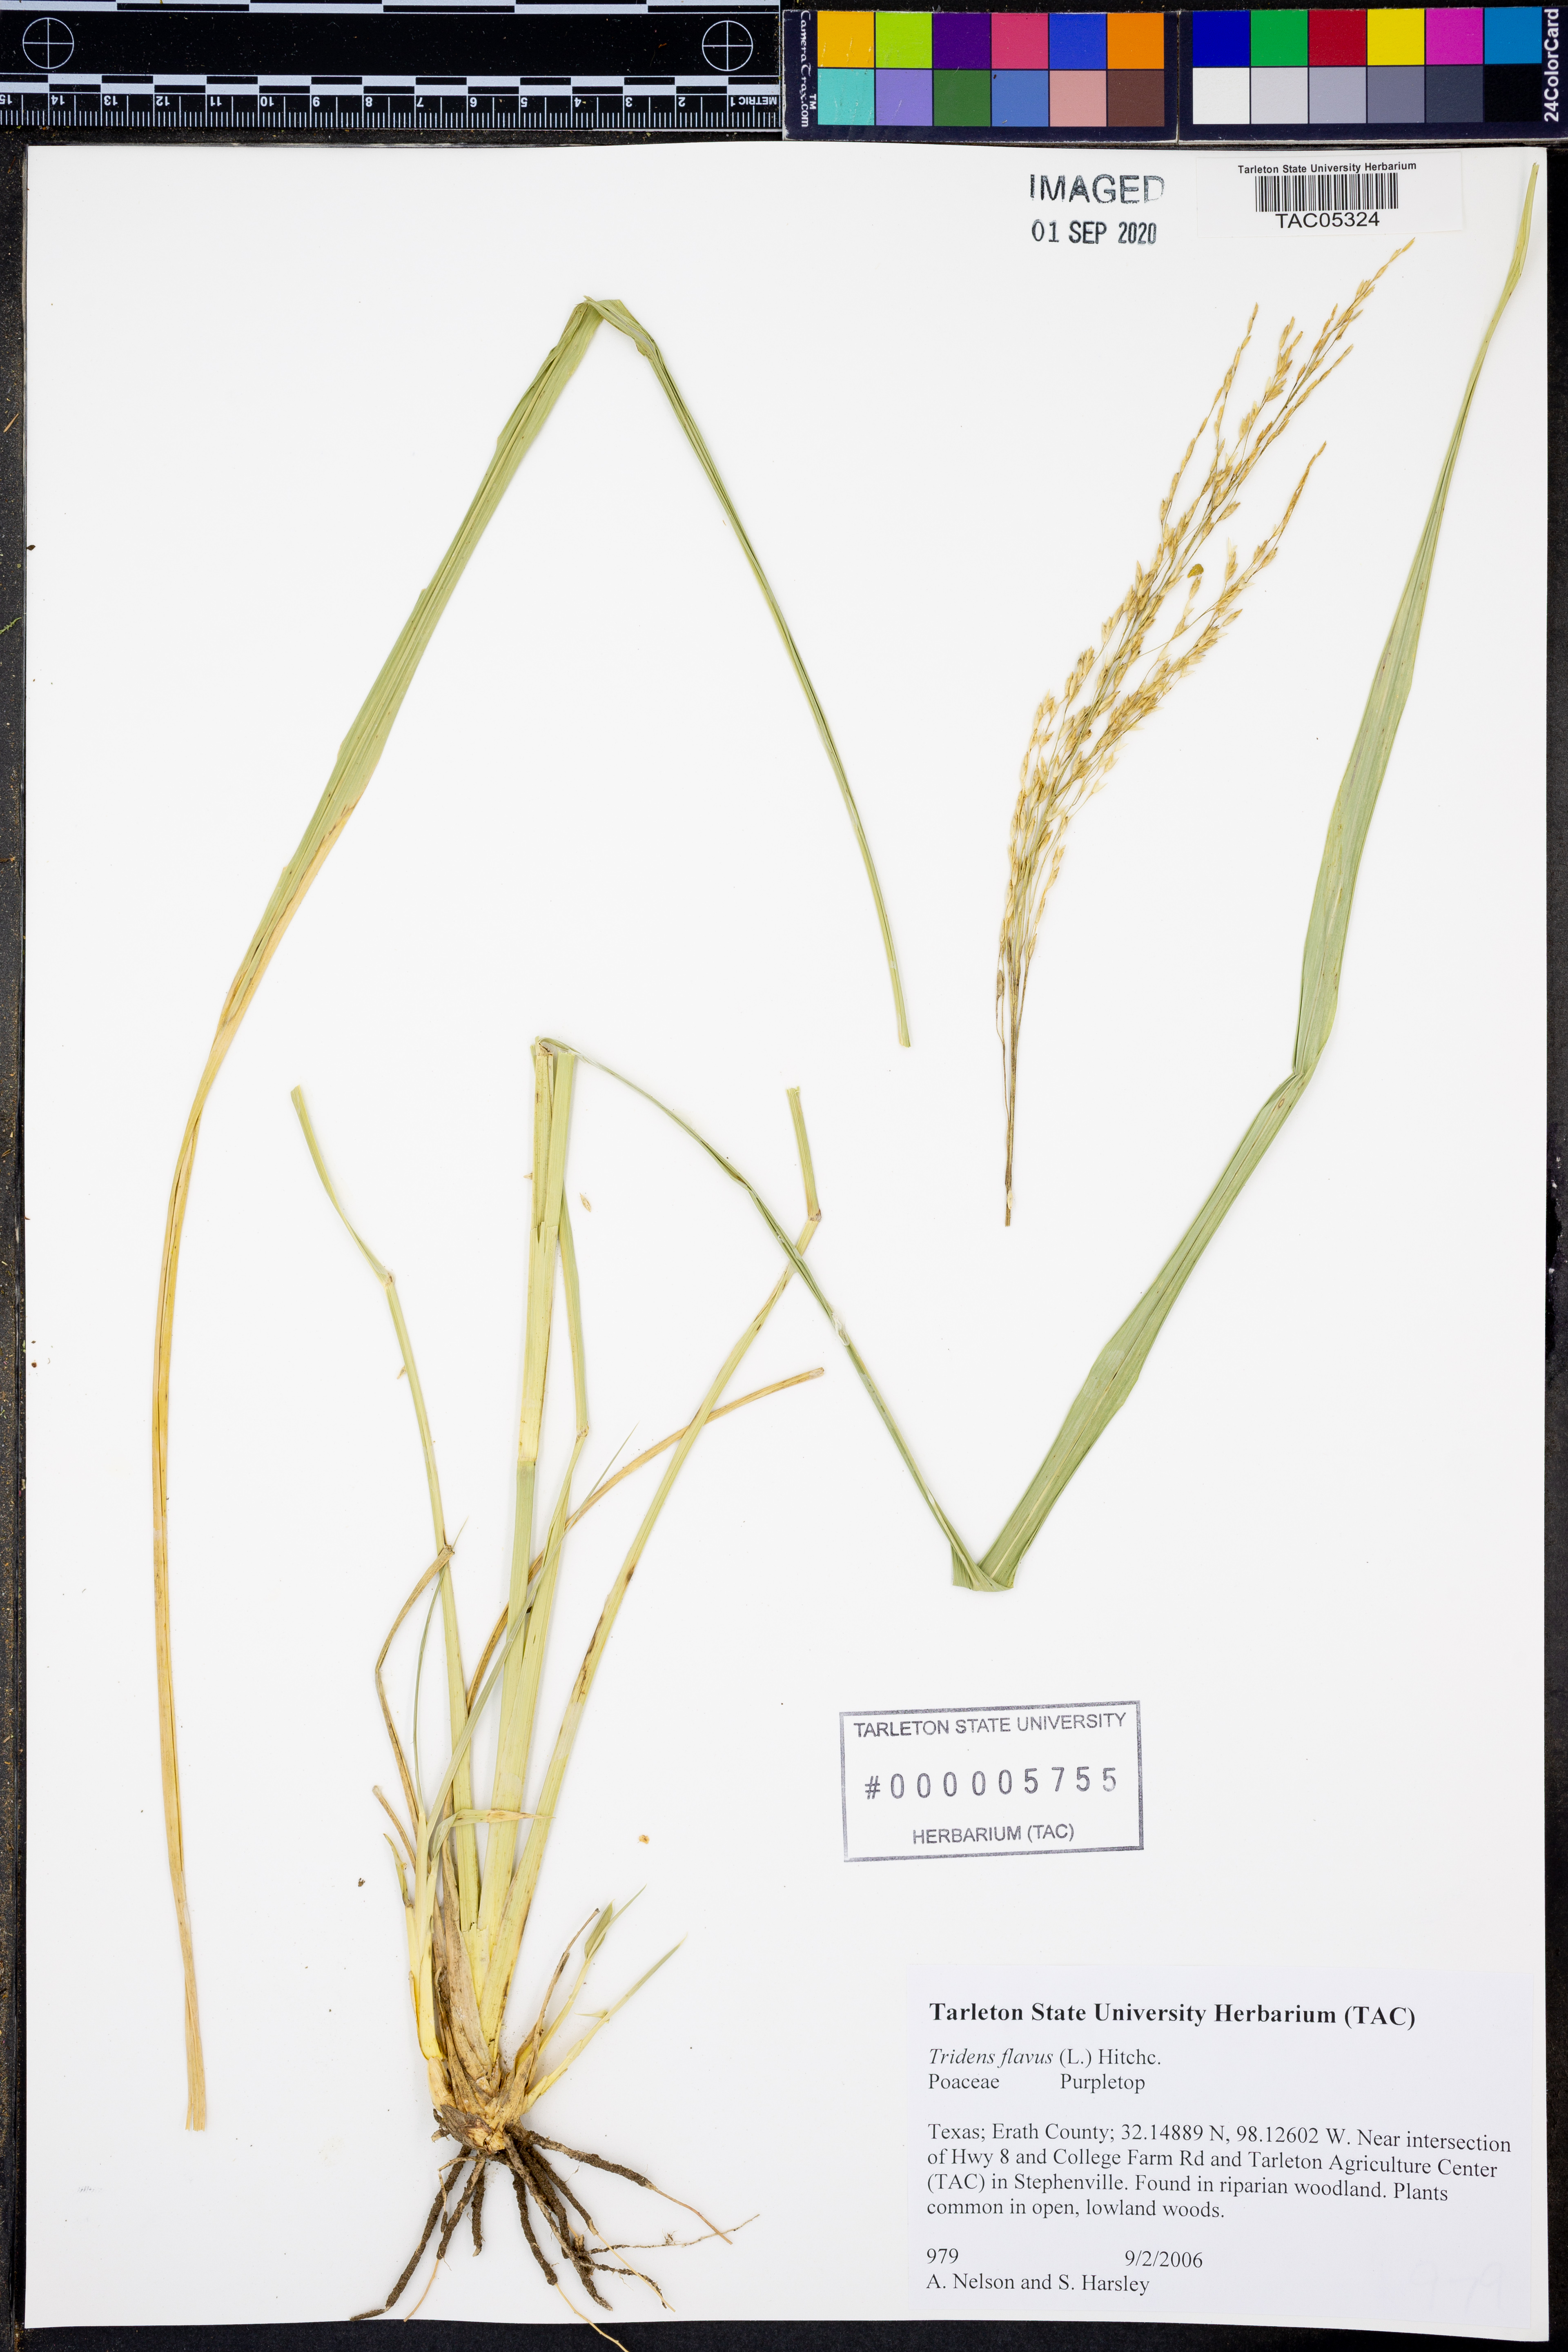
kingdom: Plantae
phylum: Tracheophyta
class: Liliopsida
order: Poales
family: Poaceae
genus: Tridens
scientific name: Tridens flavus
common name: Purpletop
